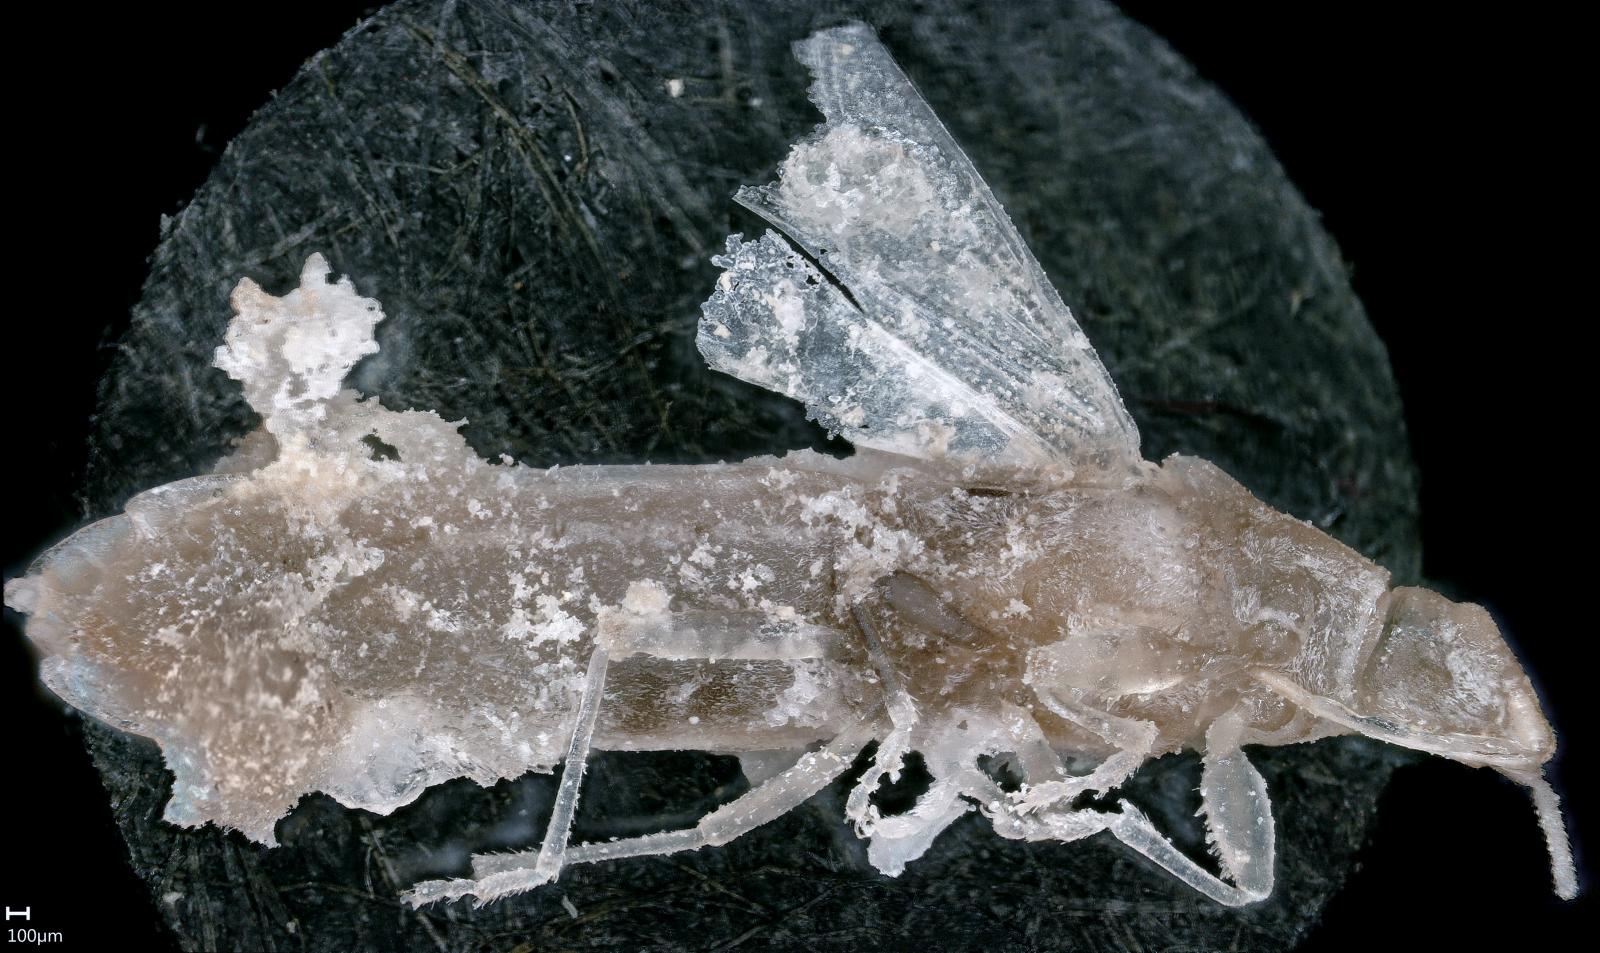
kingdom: Animalia
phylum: Arthropoda
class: Insecta
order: Hemiptera
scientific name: Hemiptera
